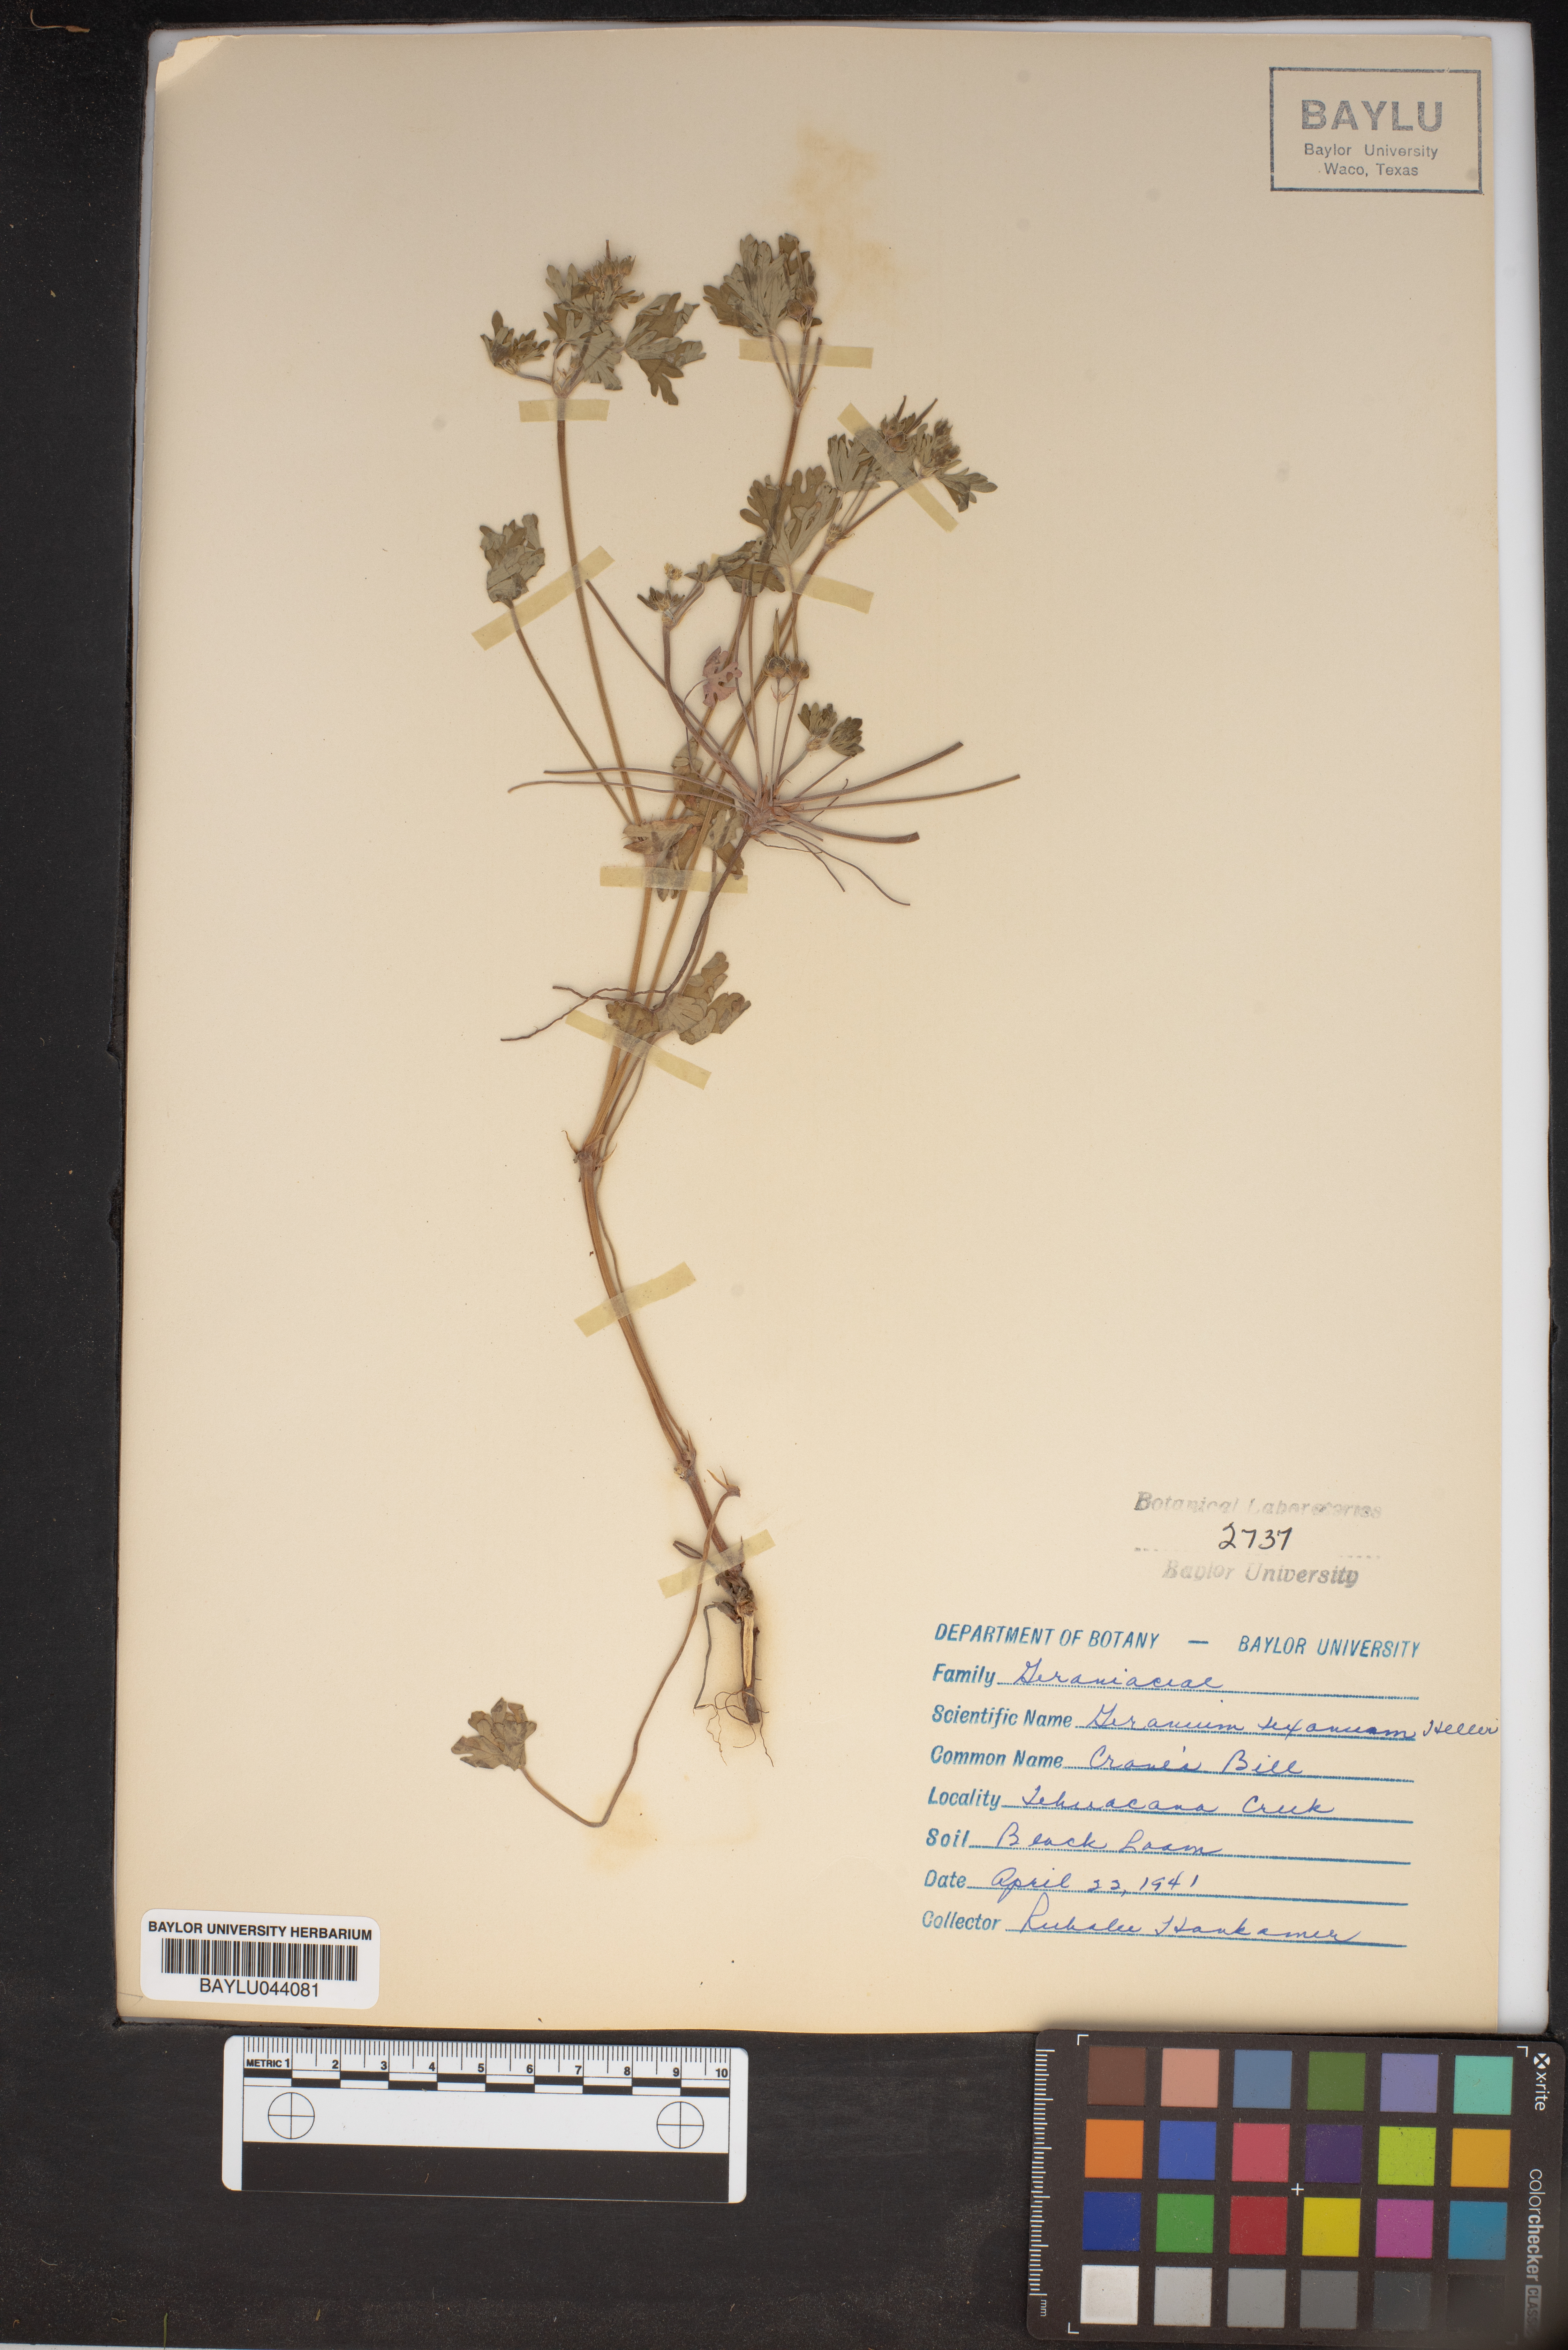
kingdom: Plantae
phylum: Tracheophyta
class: Magnoliopsida
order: Geraniales
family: Geraniaceae
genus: Geranium
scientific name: Geranium texanum
